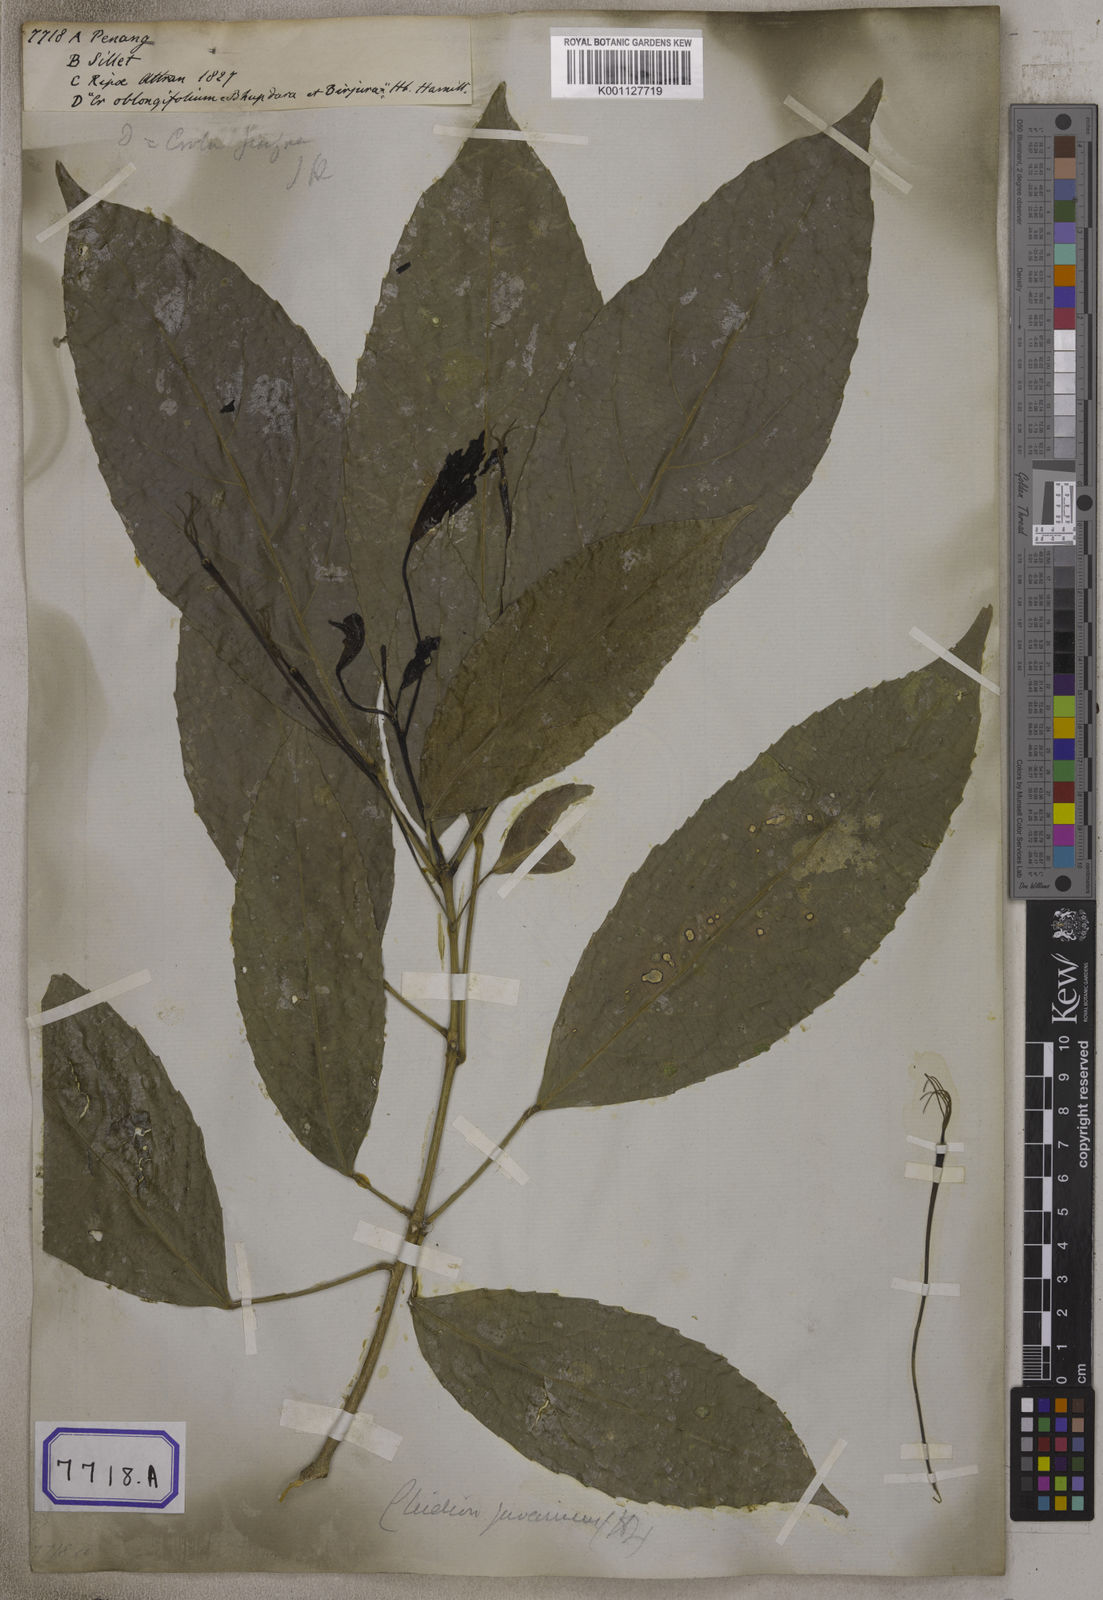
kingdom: Plantae
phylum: Tracheophyta
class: Magnoliopsida
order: Malpighiales
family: Euphorbiaceae
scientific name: Euphorbiaceae
